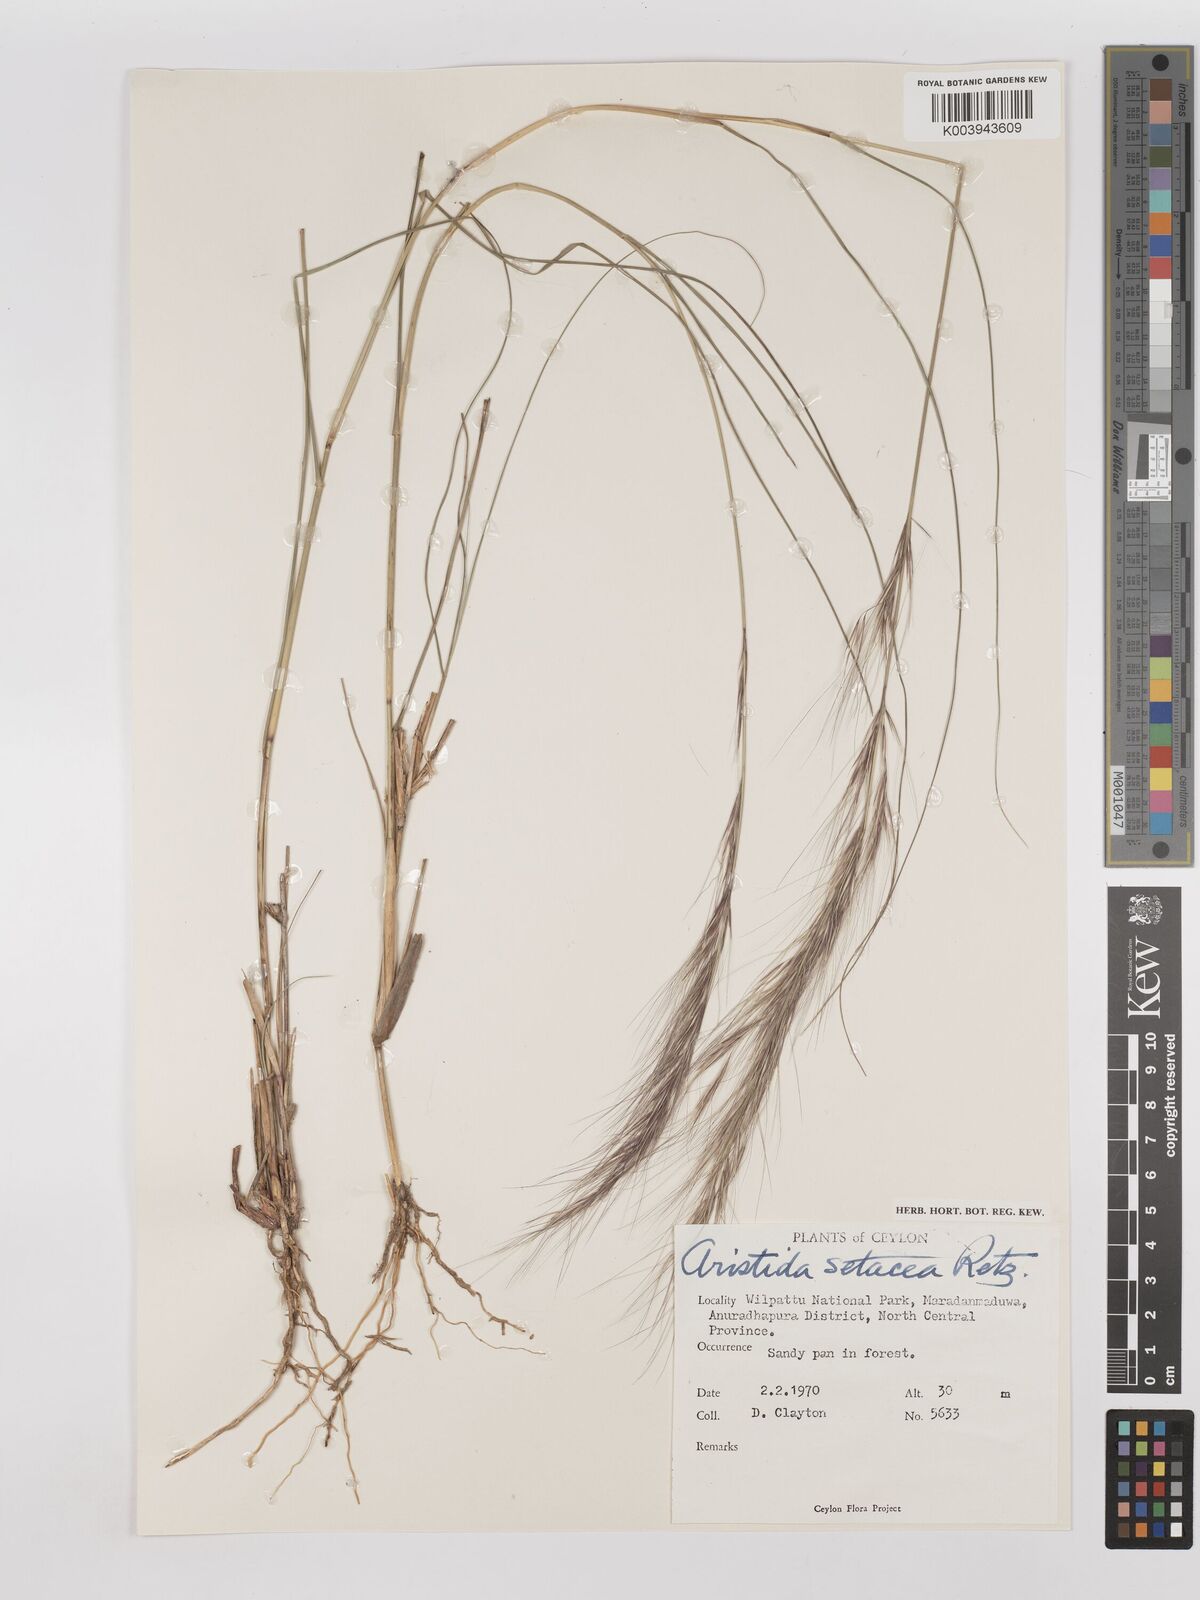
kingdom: Plantae
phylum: Tracheophyta
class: Liliopsida
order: Poales
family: Poaceae
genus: Aristida
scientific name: Aristida setacea
